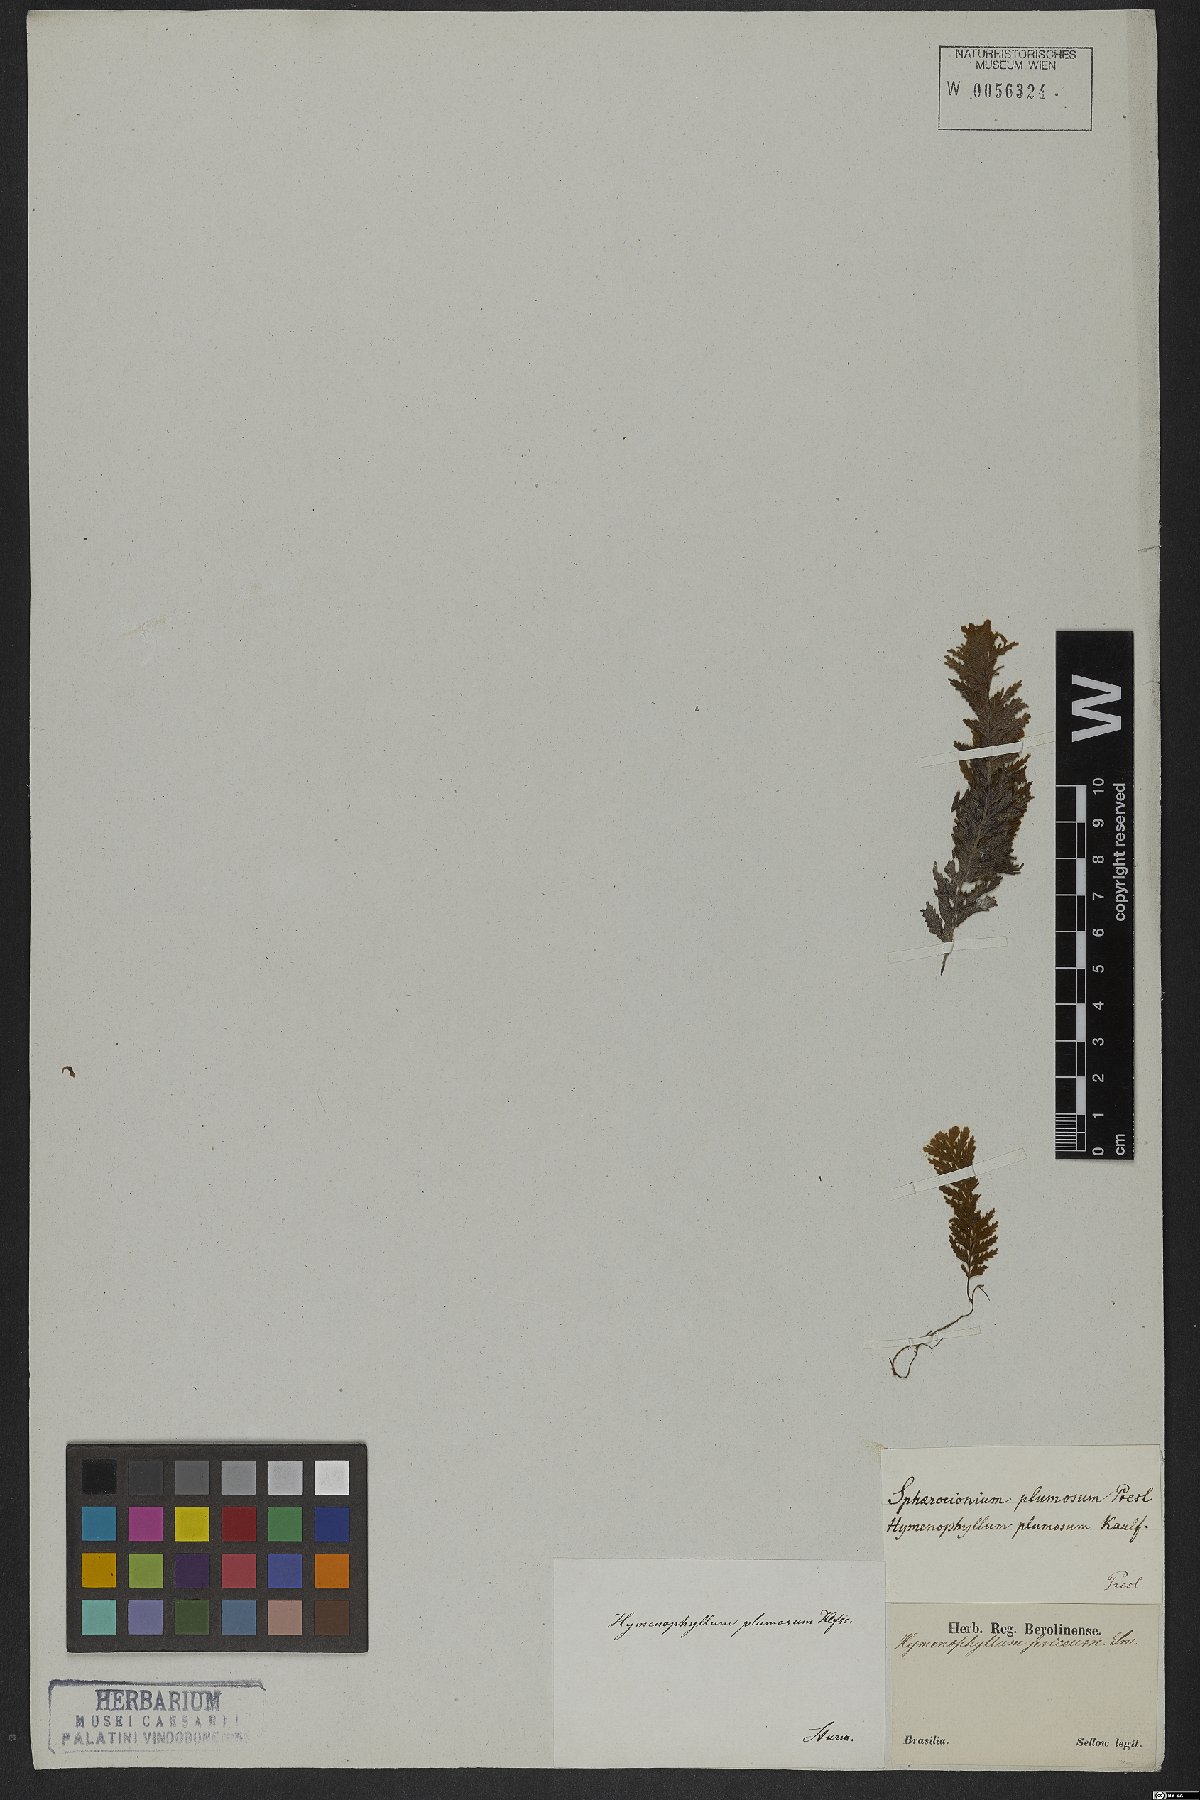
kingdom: Plantae
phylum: Tracheophyta
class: Polypodiopsida
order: Hymenophyllales
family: Hymenophyllaceae
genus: Hymenophyllum
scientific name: Hymenophyllum plumosum
